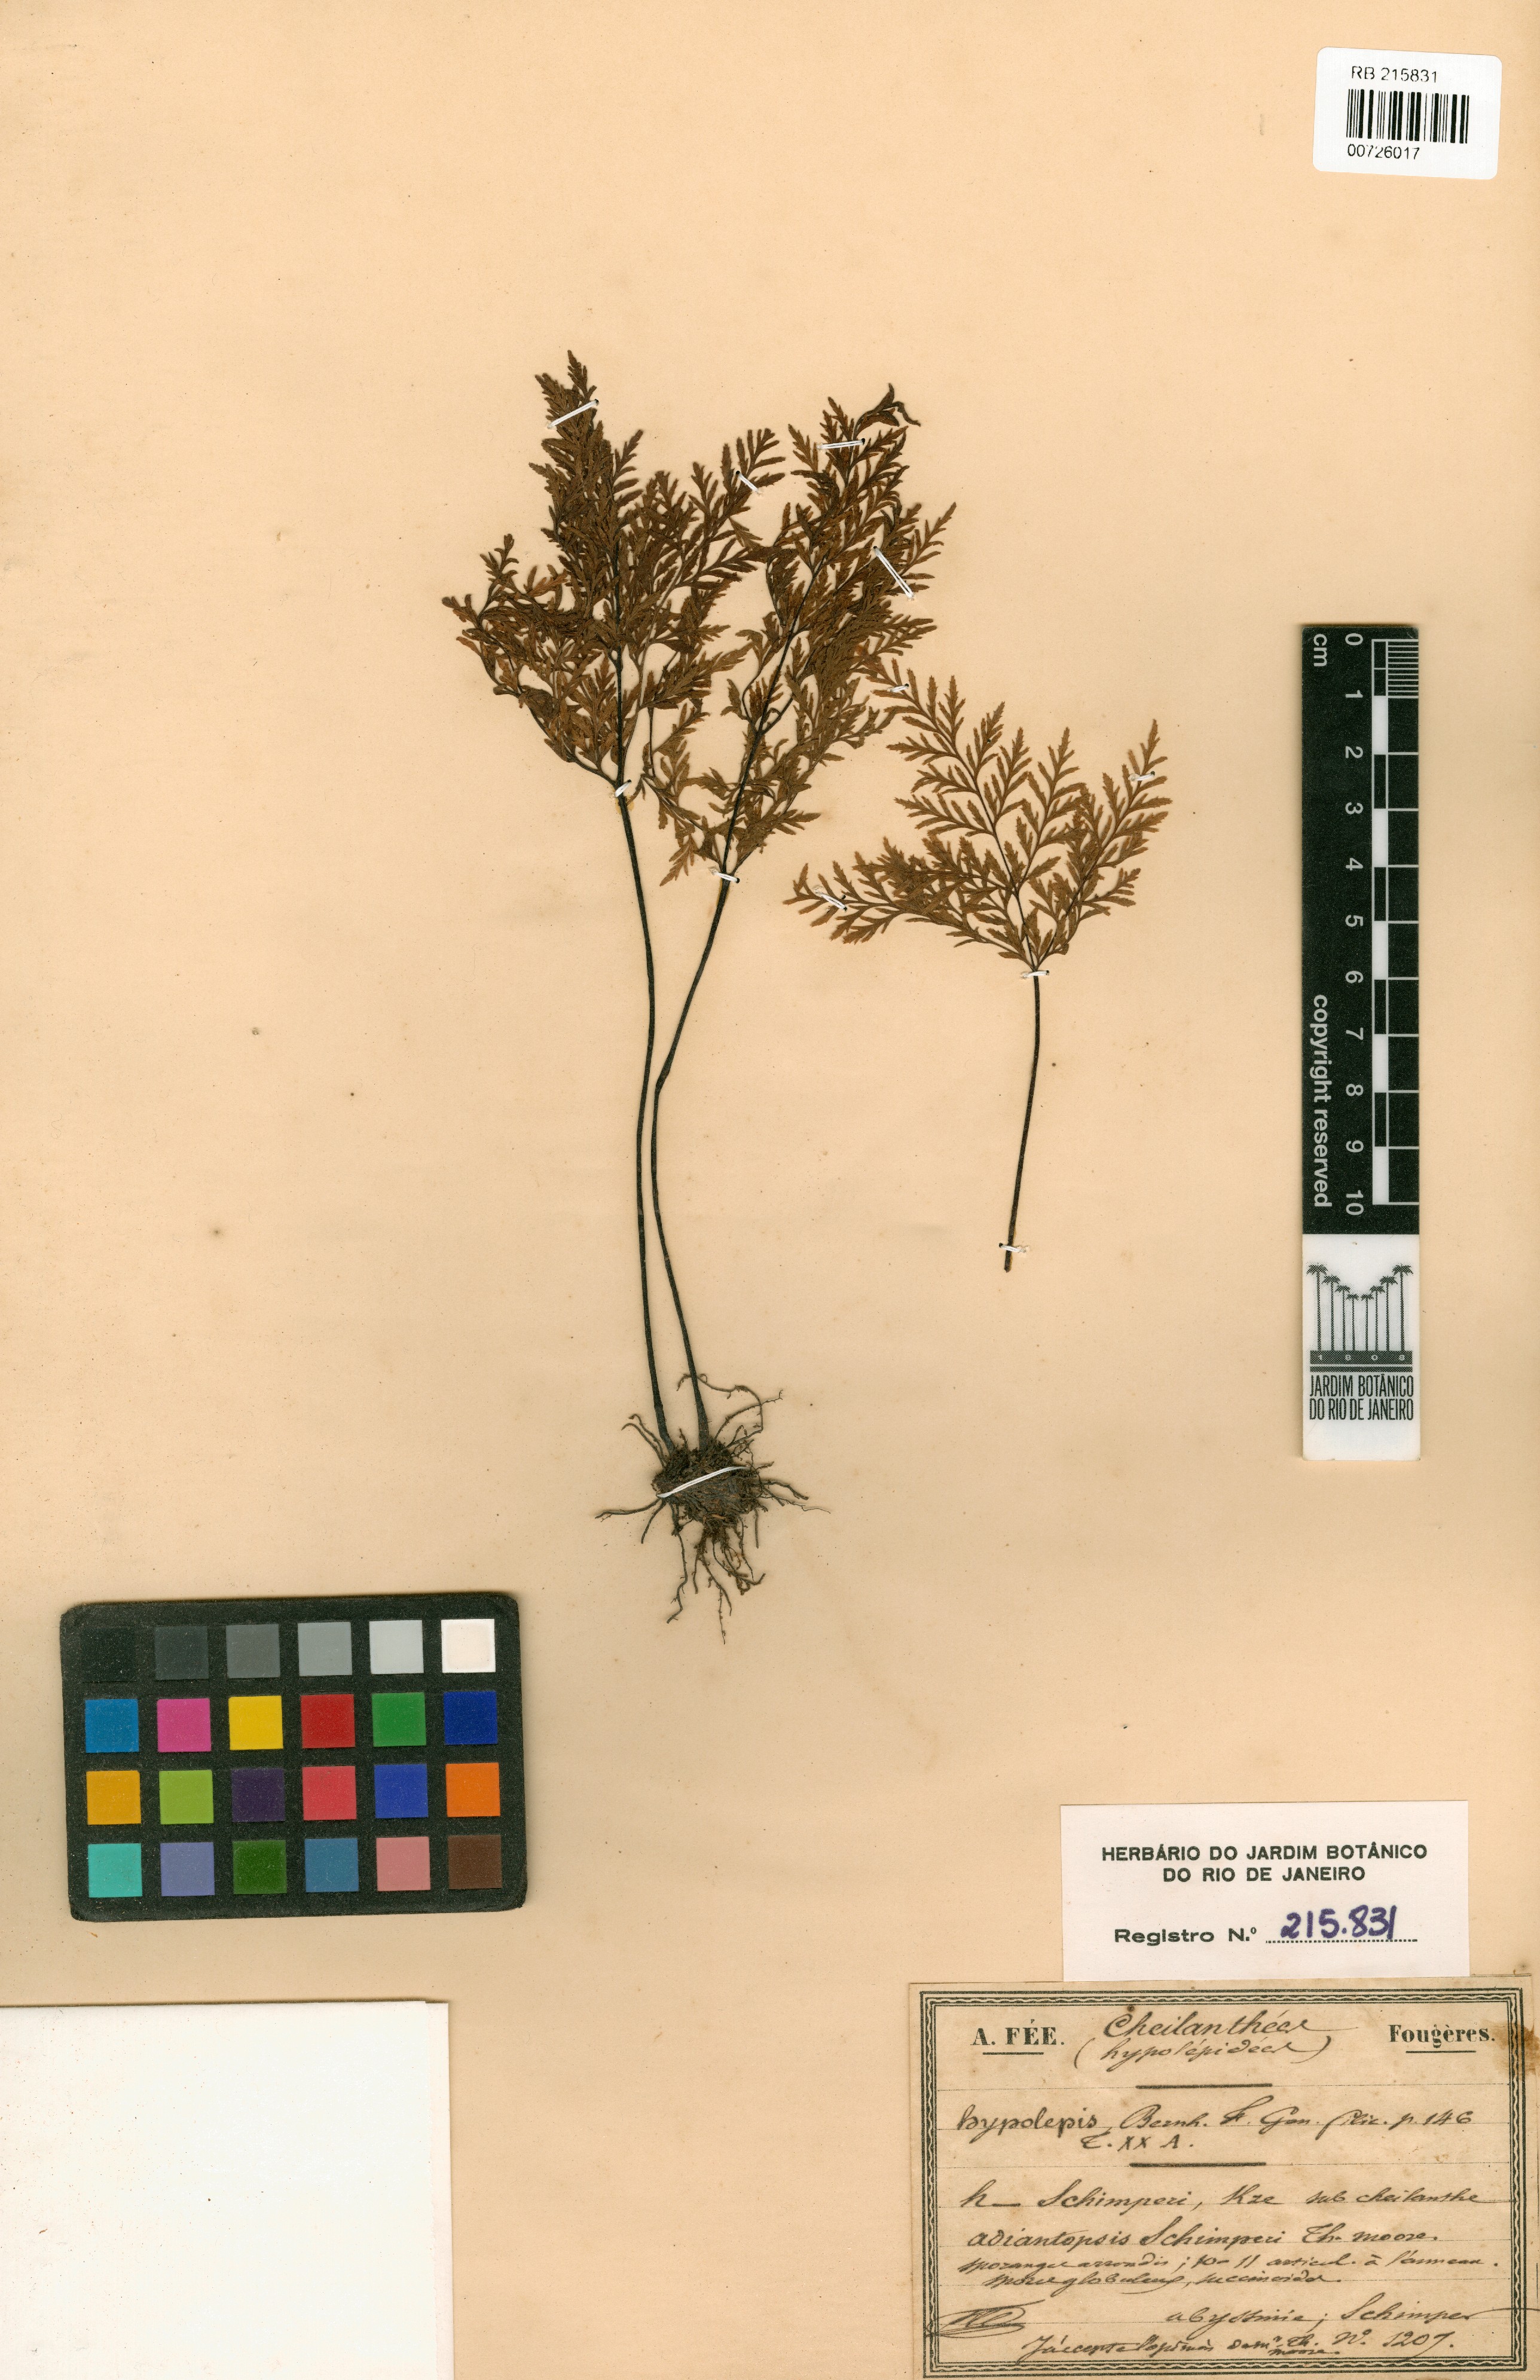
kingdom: Plantae
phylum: Tracheophyta
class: Polypodiopsida
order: Polypodiales
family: Pteridaceae
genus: Cheilanthes
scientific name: Cheilanthes schimperi
